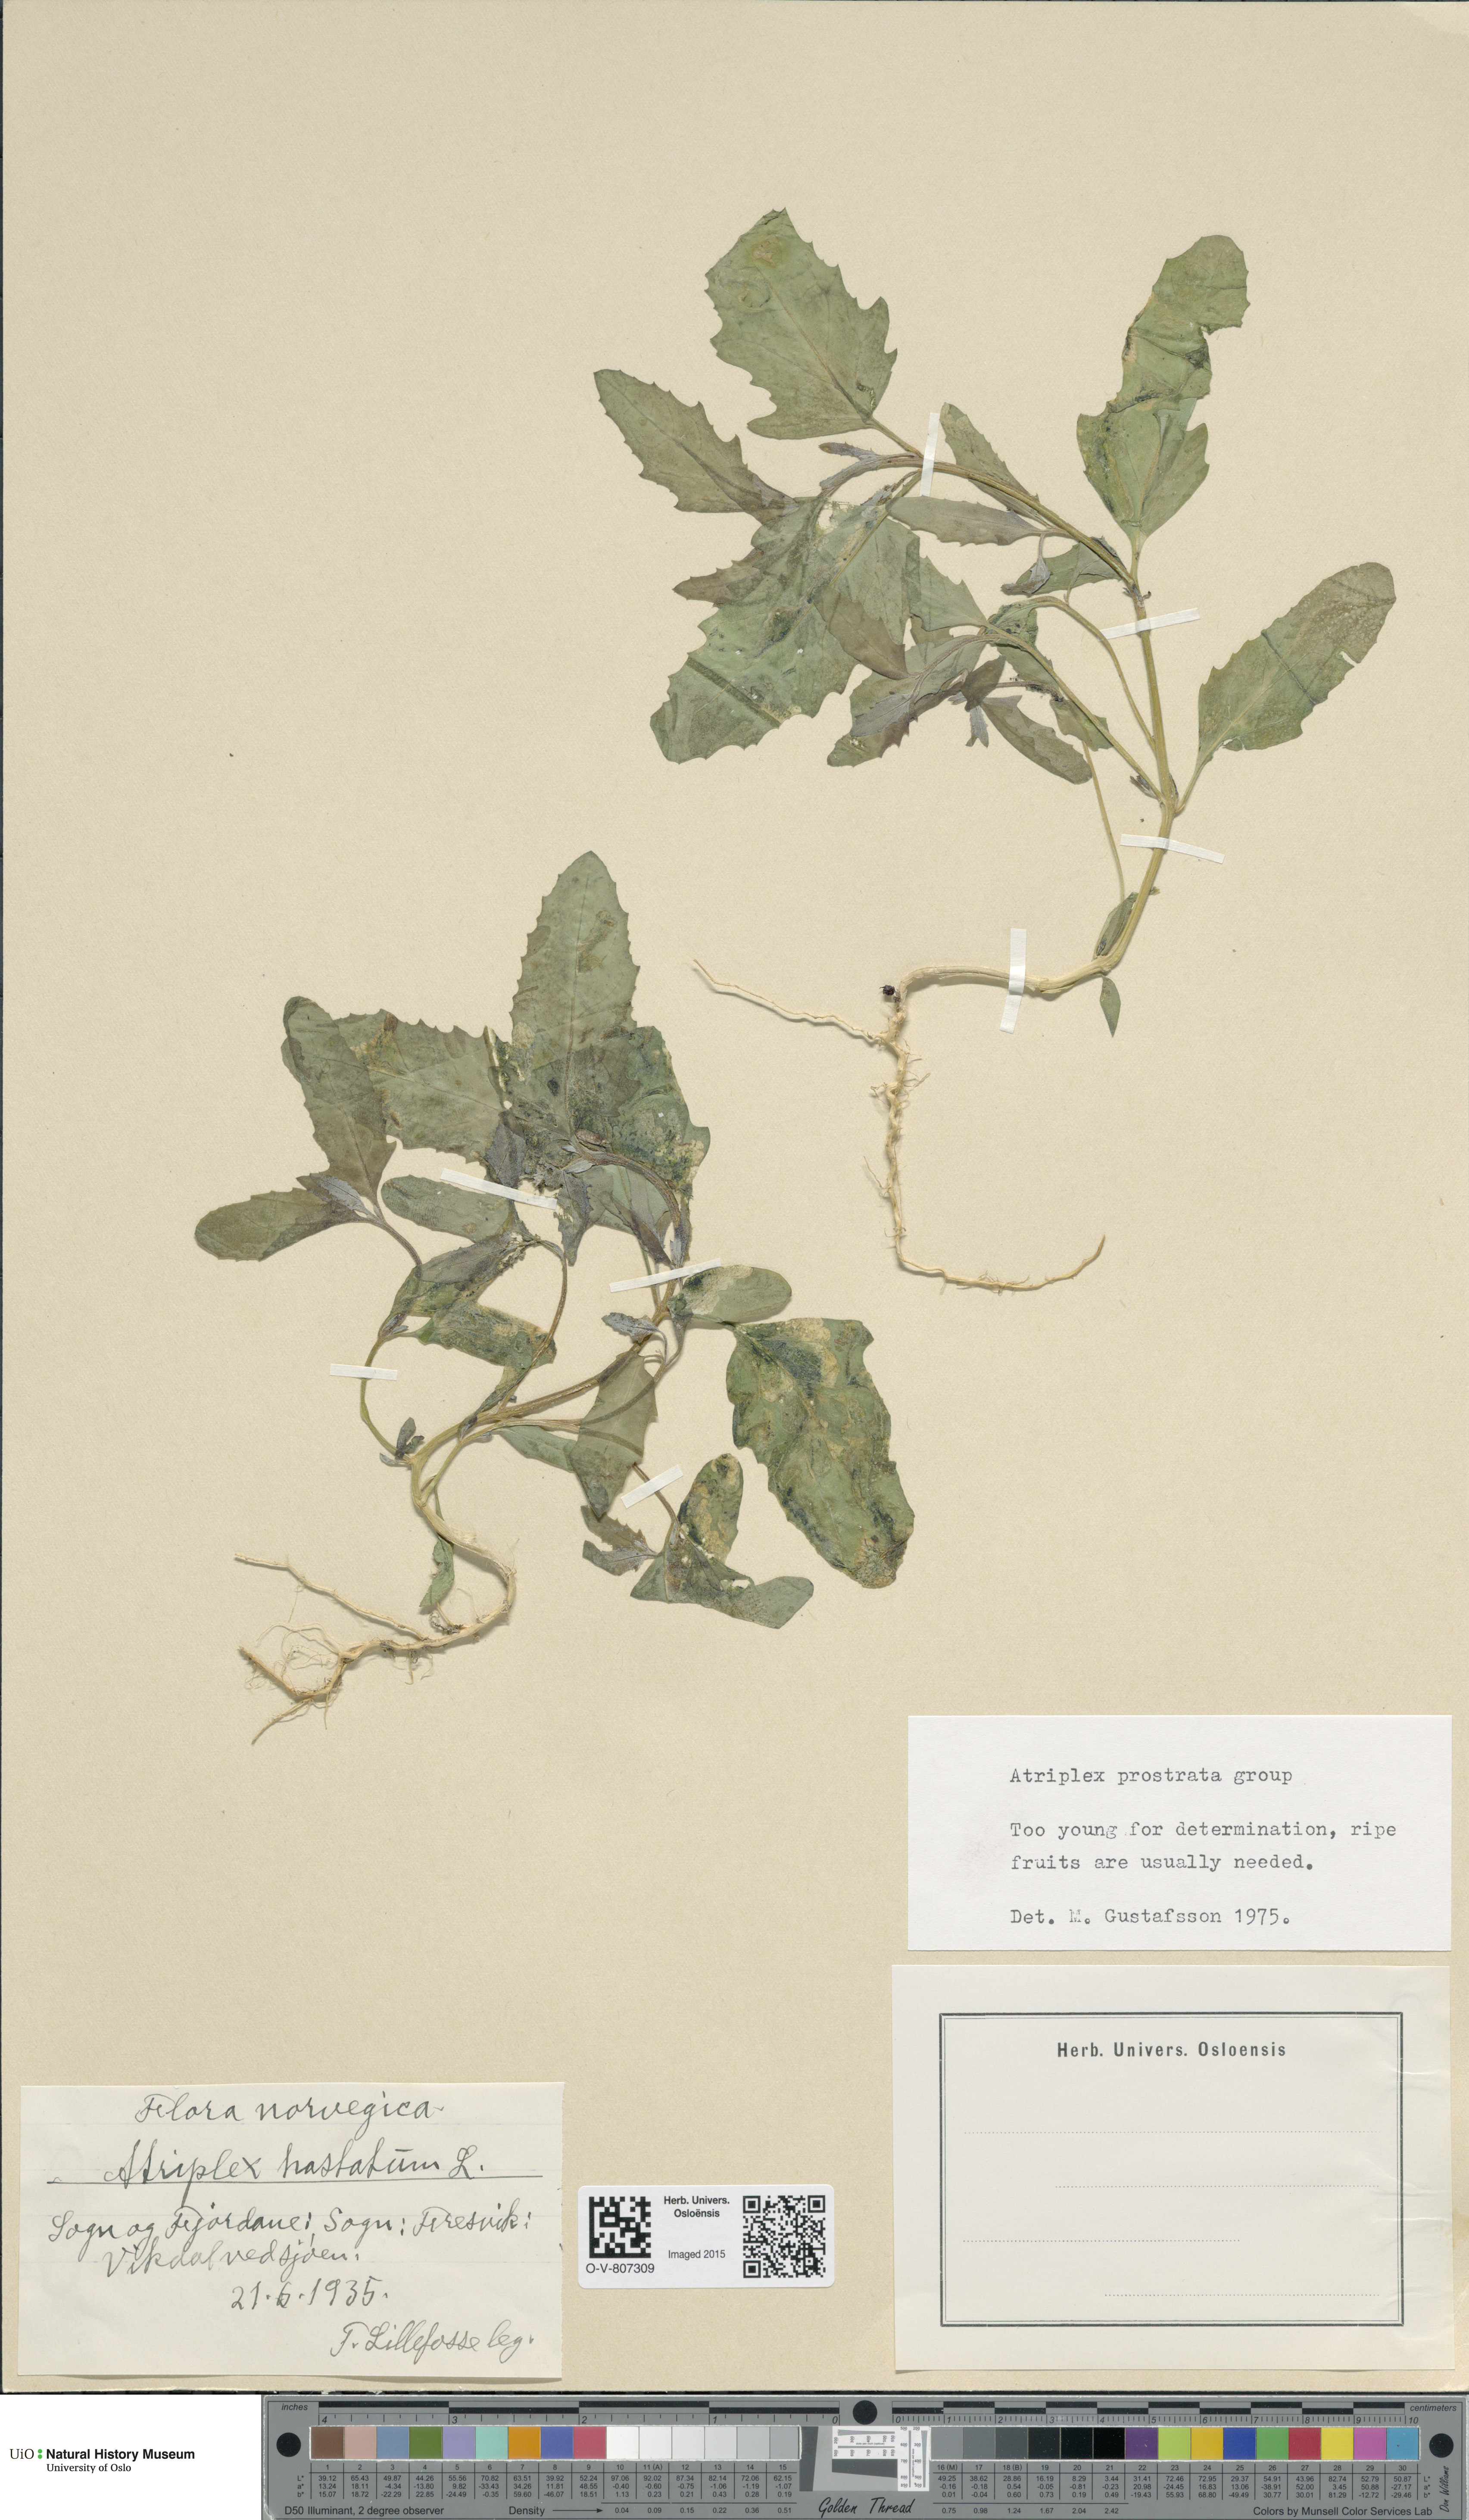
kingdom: Plantae
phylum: Tracheophyta
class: Magnoliopsida
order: Caryophyllales
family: Amaranthaceae
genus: Atriplex
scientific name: Atriplex prostrata
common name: Spear-leaved orache
